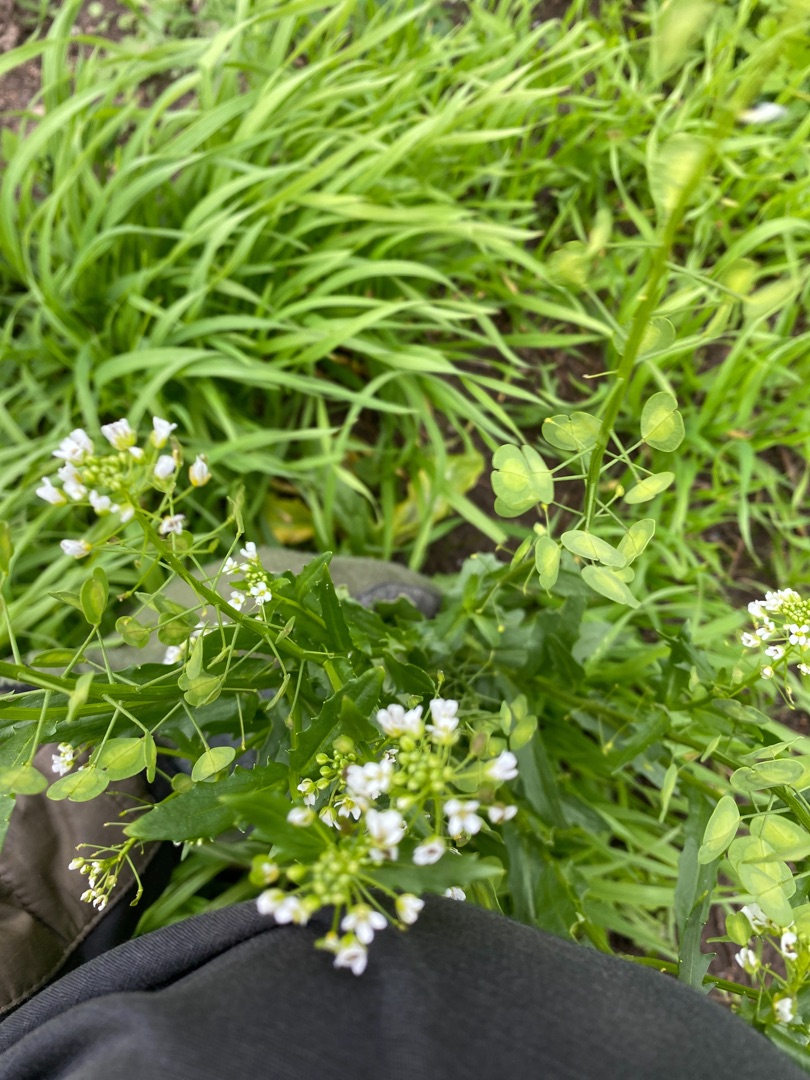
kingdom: Plantae
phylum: Tracheophyta
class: Magnoliopsida
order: Brassicales
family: Brassicaceae
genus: Thlaspi
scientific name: Thlaspi arvense
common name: Almindelig pengeurt
